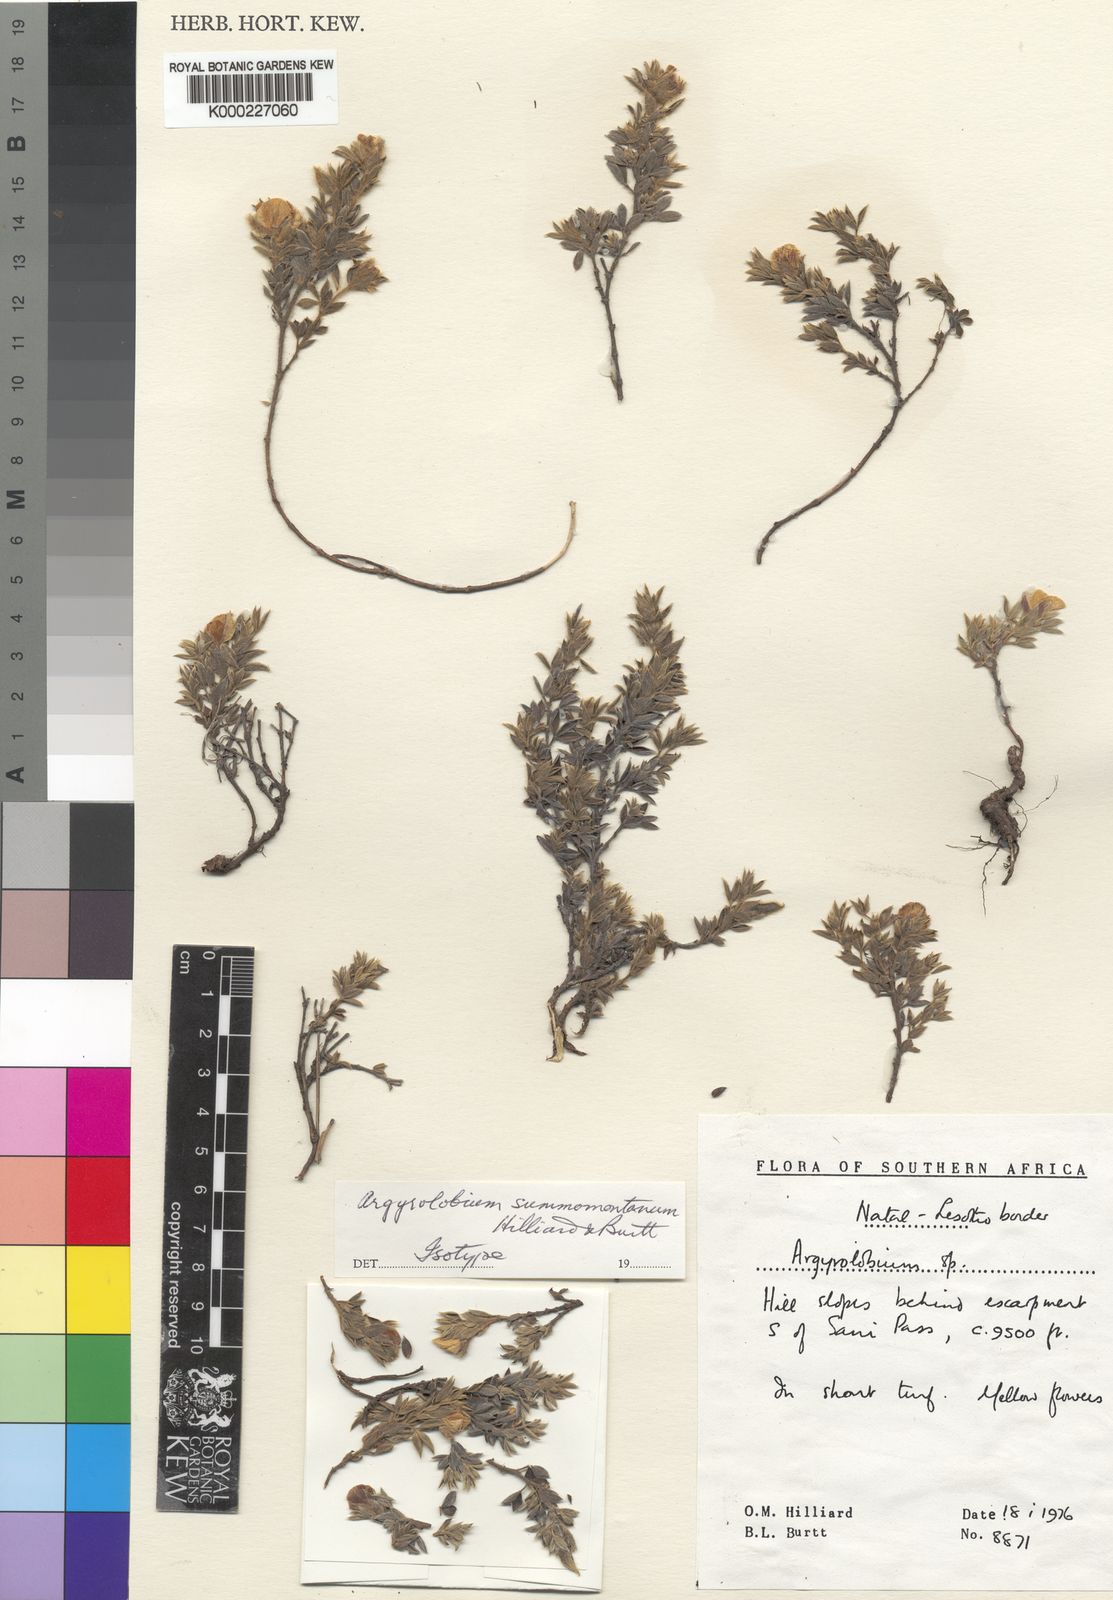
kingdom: Plantae
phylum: Tracheophyta
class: Magnoliopsida
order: Fabales
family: Fabaceae
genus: Argyrolobium
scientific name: Argyrolobium candicans
